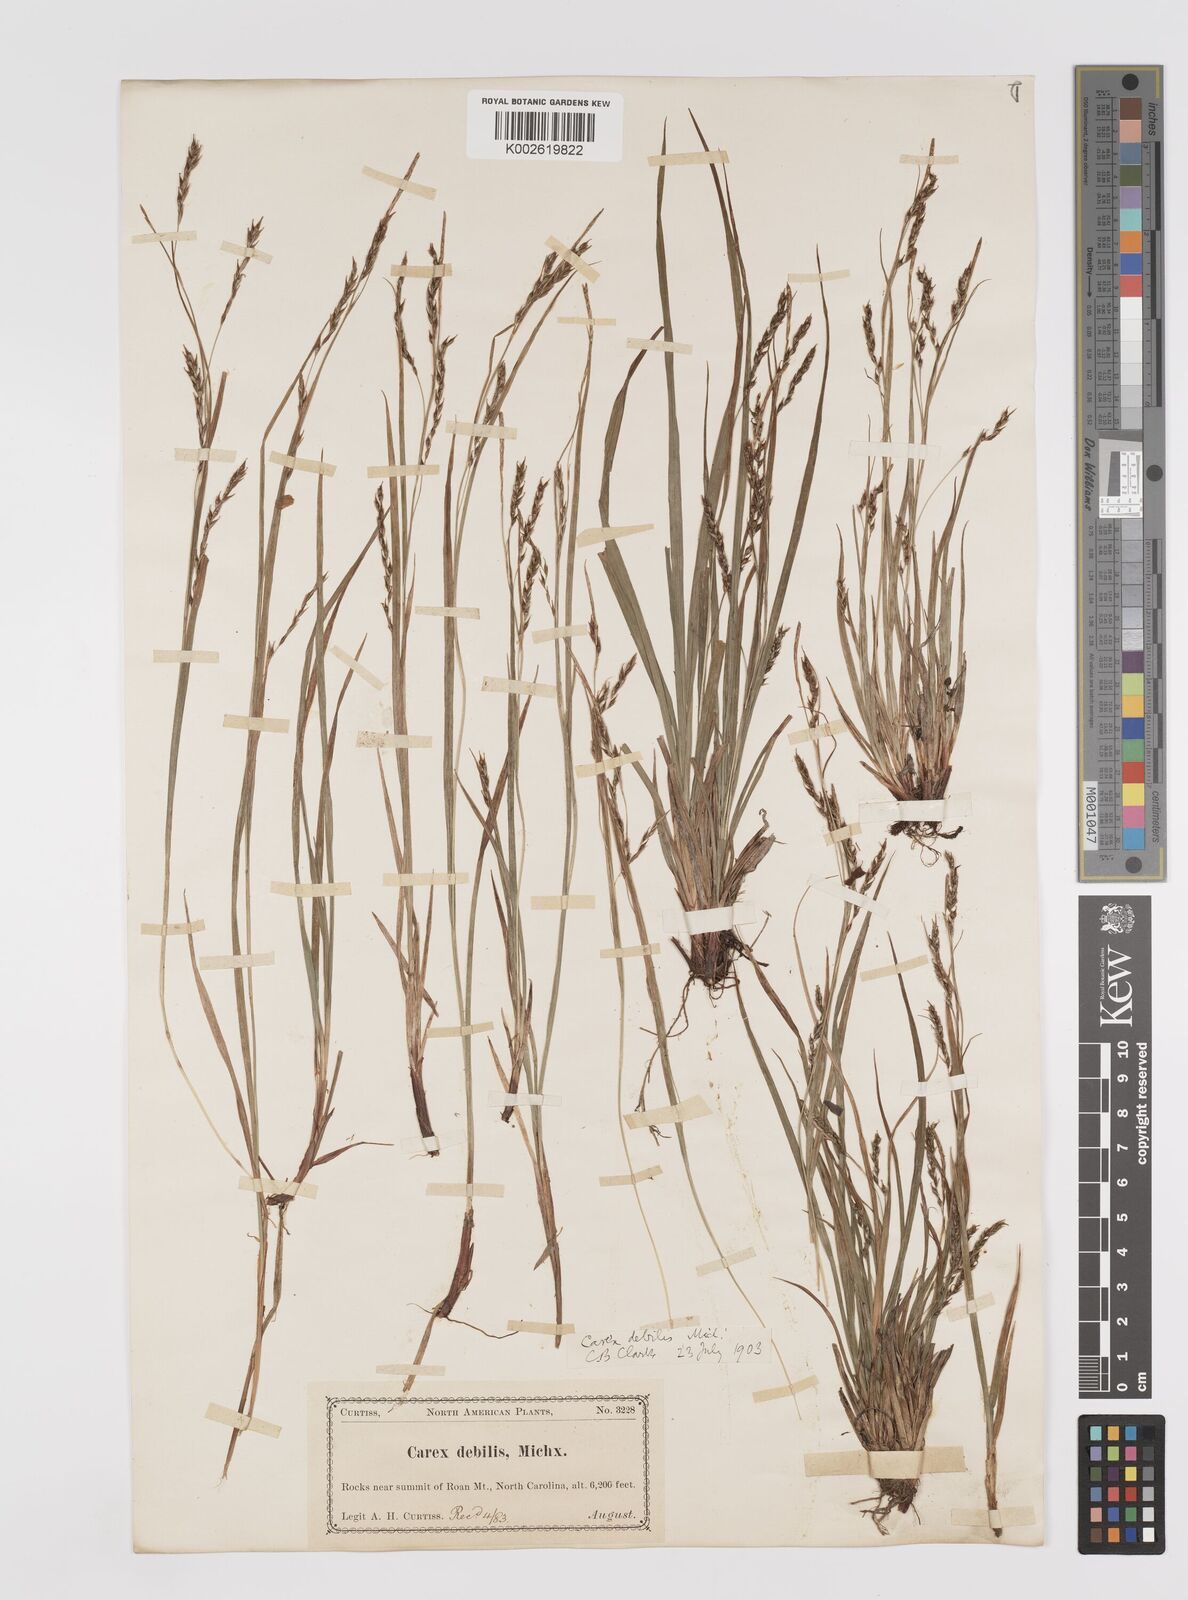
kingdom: Plantae
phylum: Tracheophyta
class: Liliopsida
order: Poales
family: Cyperaceae
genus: Carex
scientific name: Carex debilis
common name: White-edge sedge
